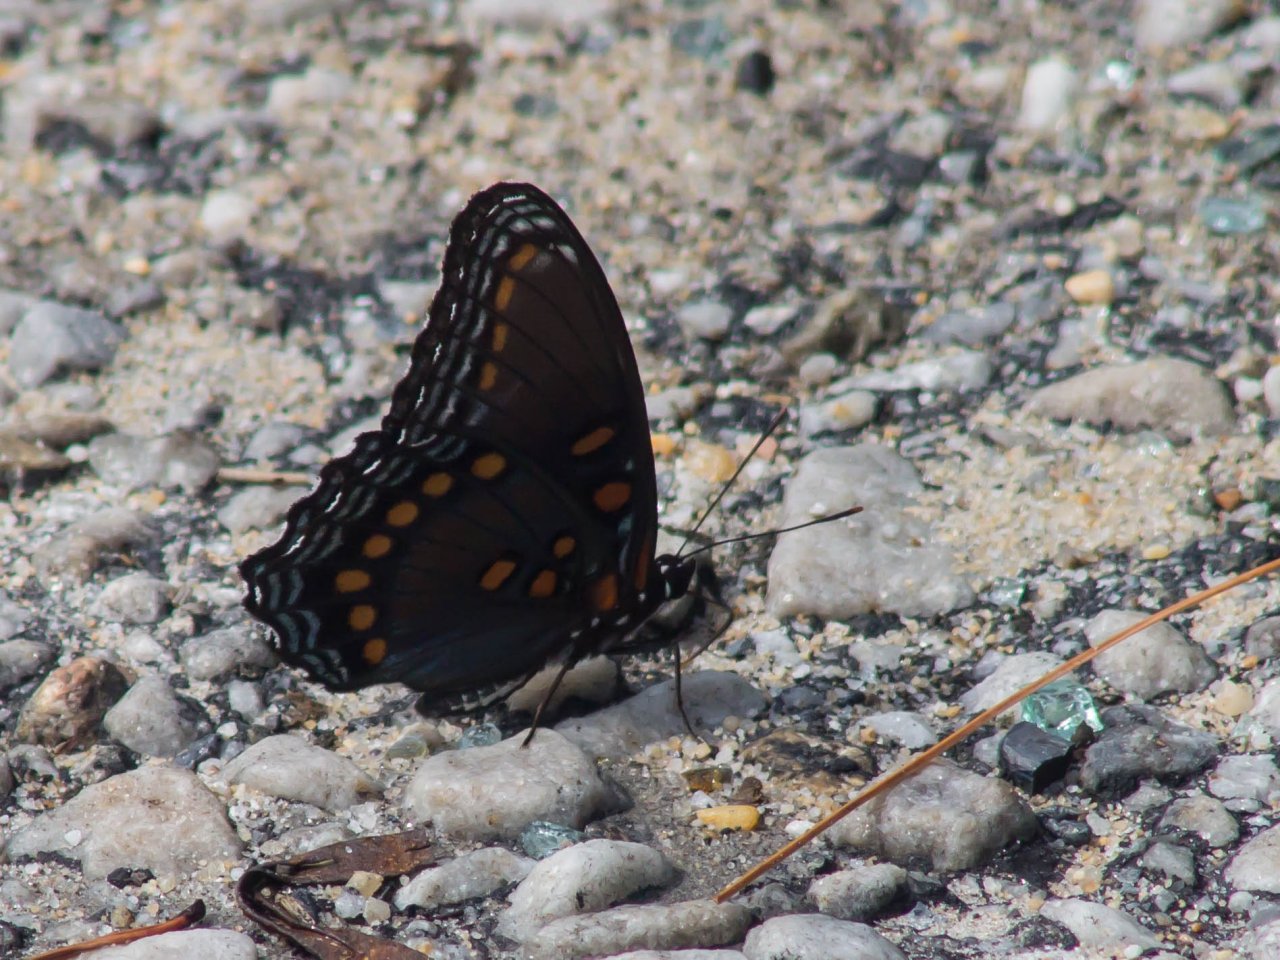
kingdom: Animalia
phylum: Arthropoda
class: Insecta
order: Lepidoptera
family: Nymphalidae
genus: Limenitis
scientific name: Limenitis astyanax
